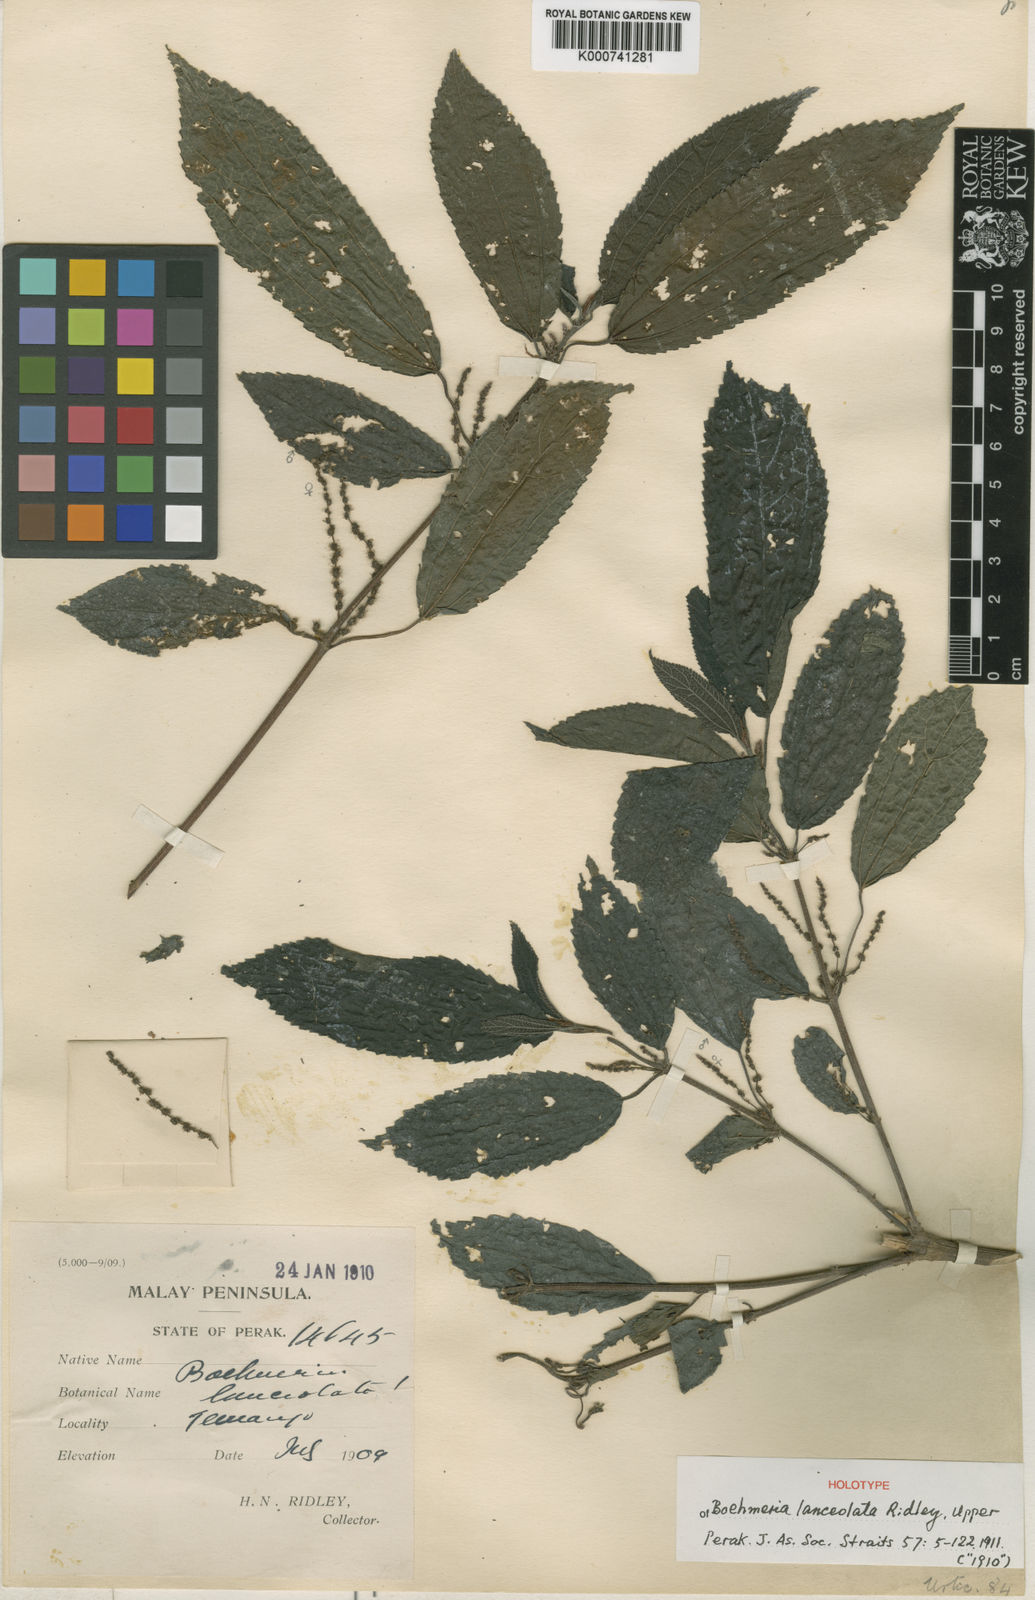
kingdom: Plantae
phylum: Tracheophyta
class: Magnoliopsida
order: Rosales
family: Urticaceae
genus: Boehmeria
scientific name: Boehmeria lanceolata
